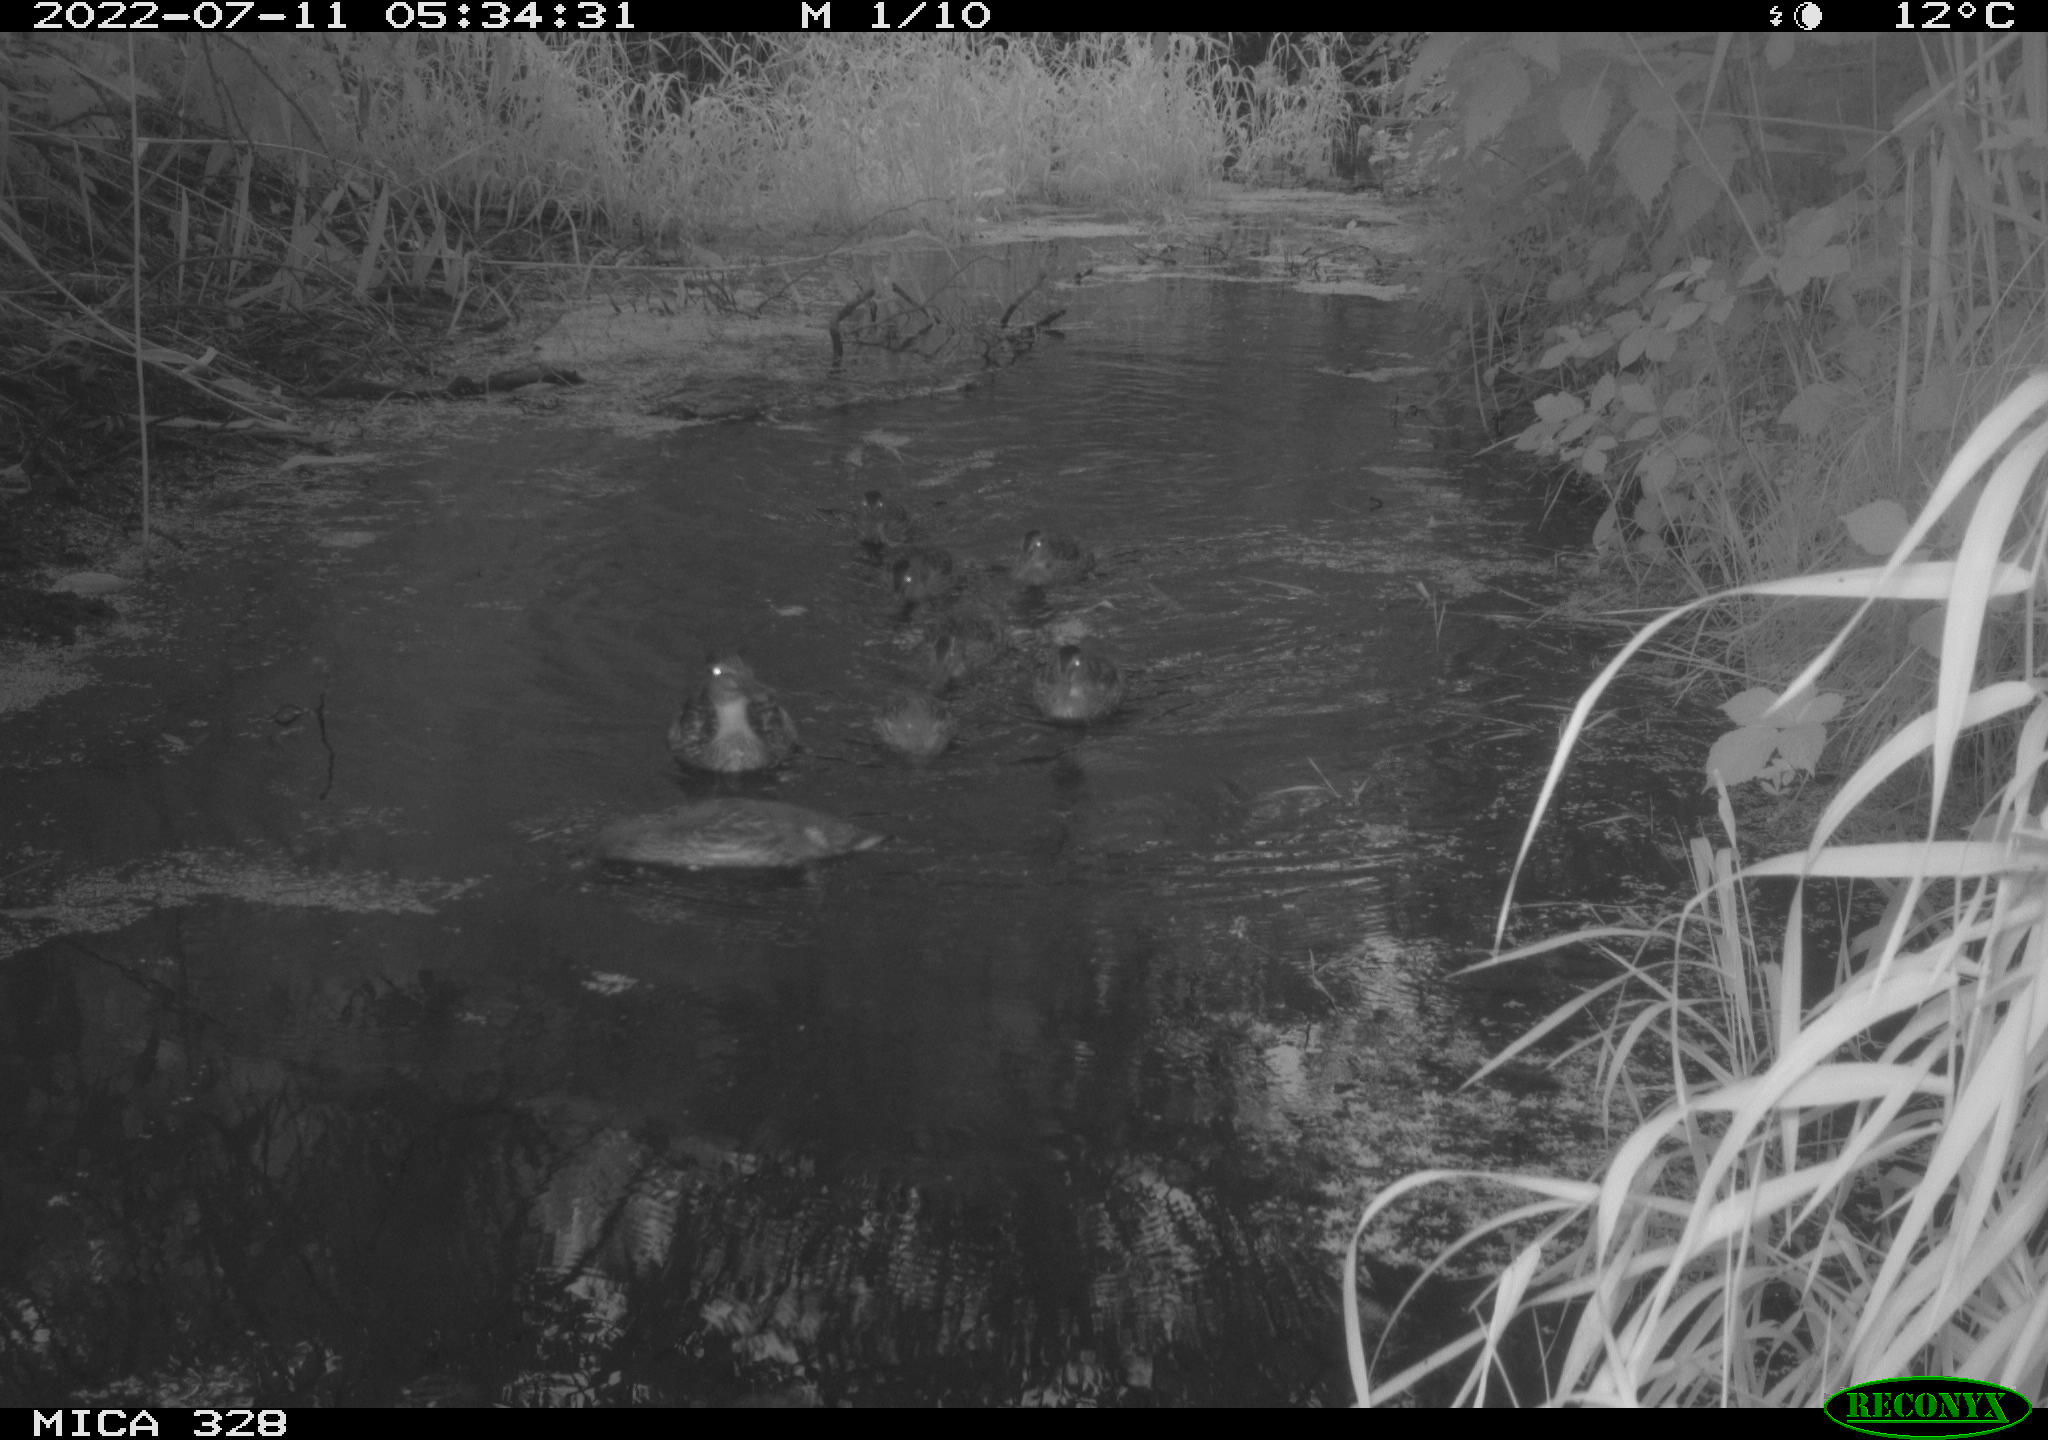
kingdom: Animalia
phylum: Chordata
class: Aves
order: Anseriformes
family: Anatidae
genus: Anas
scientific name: Anas
